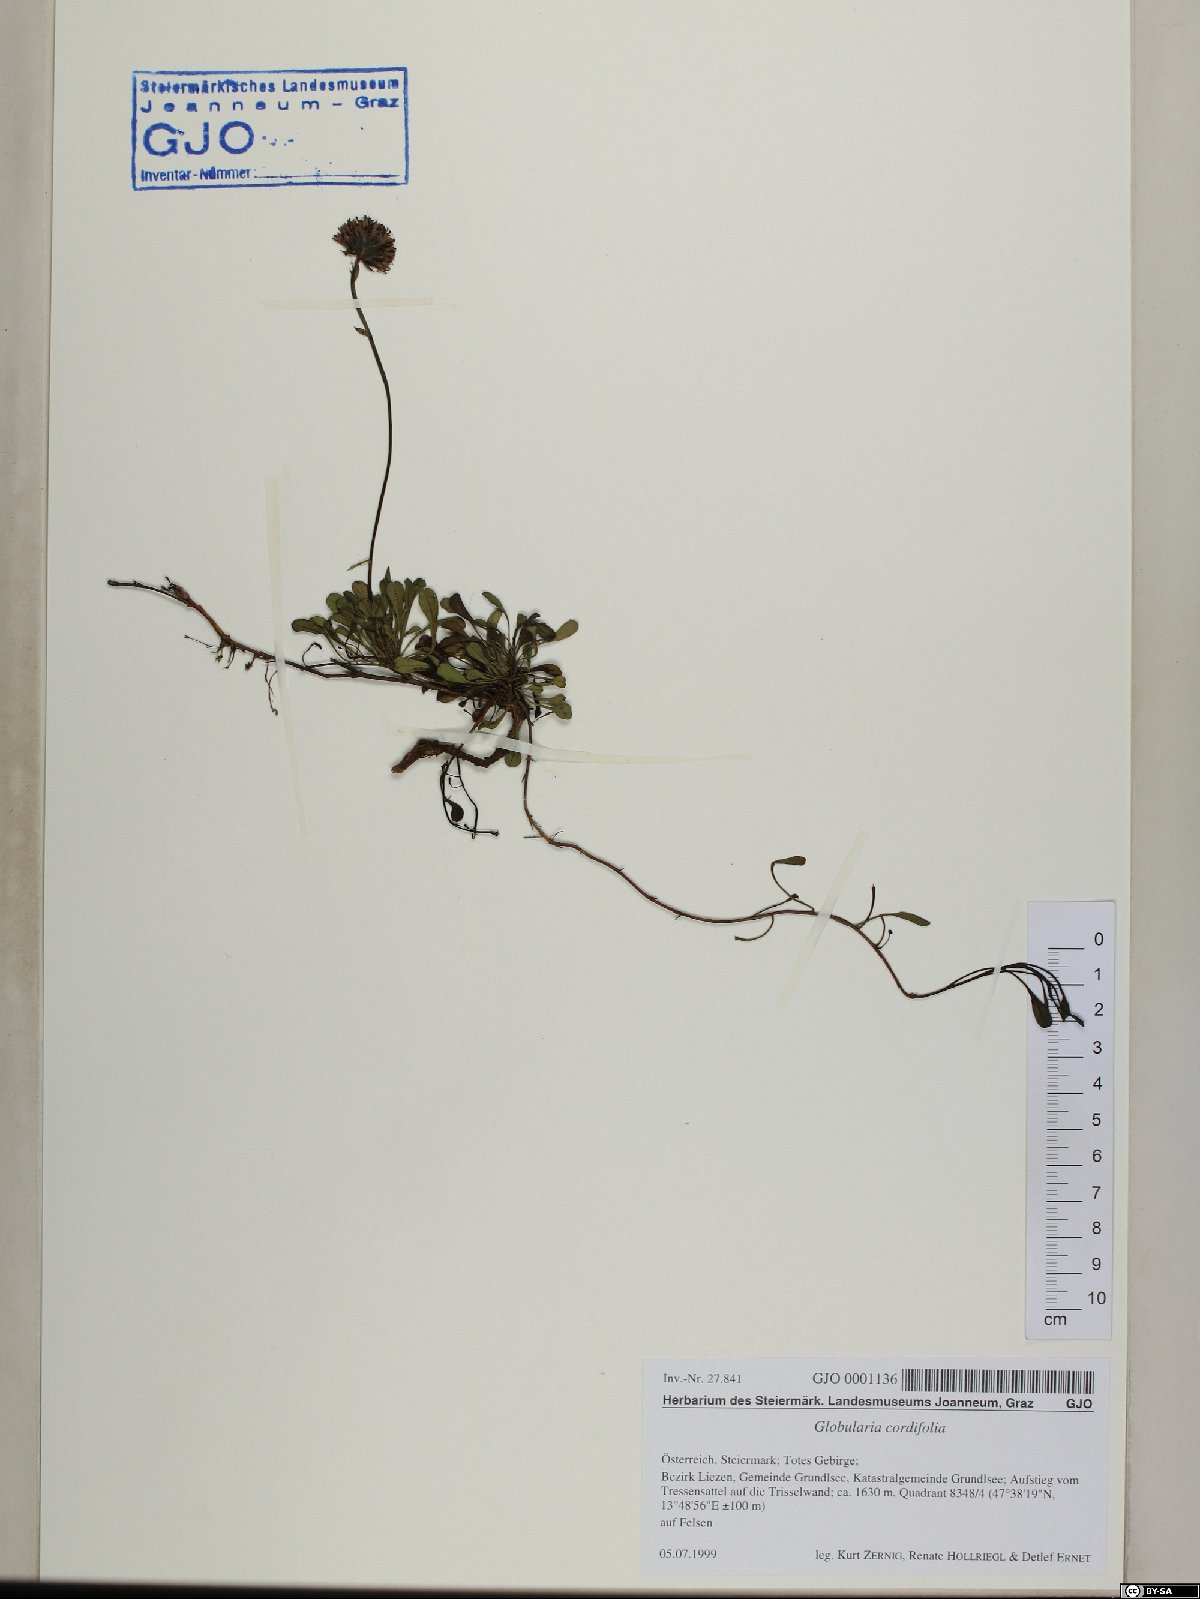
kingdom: Plantae
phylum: Tracheophyta
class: Magnoliopsida
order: Lamiales
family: Plantaginaceae
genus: Globularia
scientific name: Globularia cordifolia
